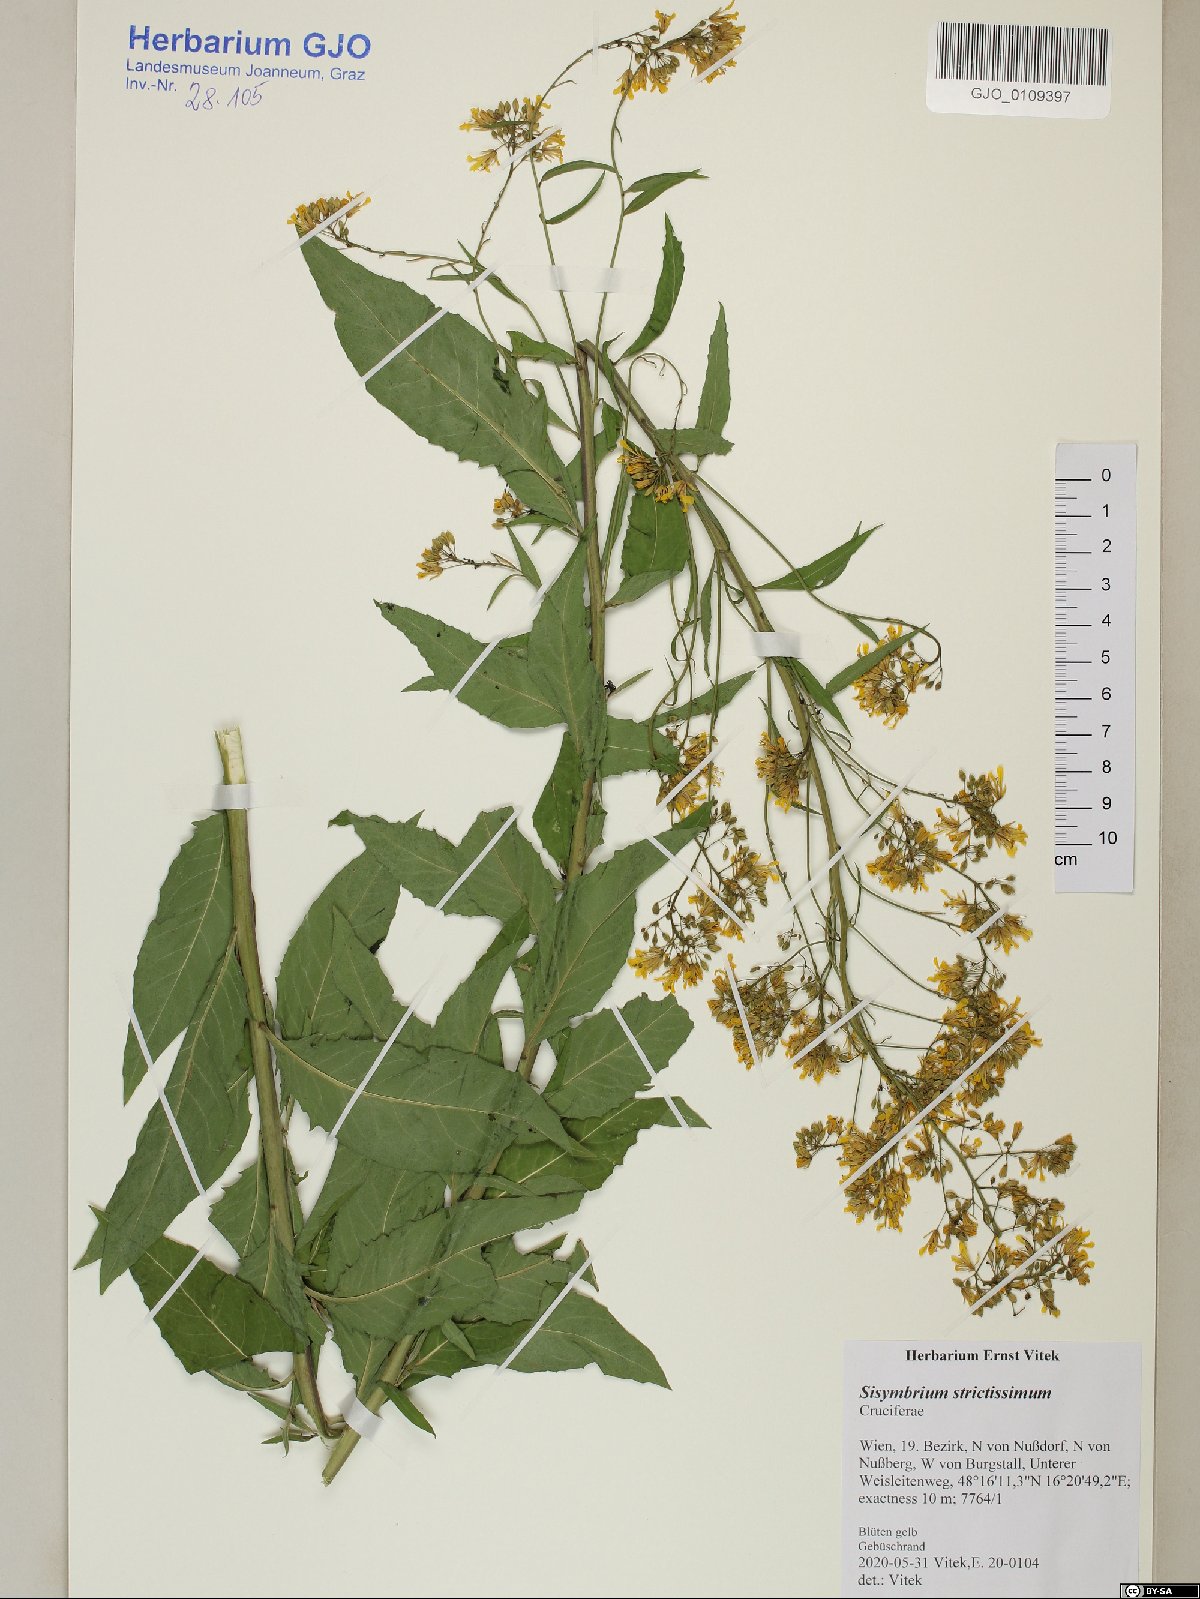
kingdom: Plantae
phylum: Tracheophyta
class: Magnoliopsida
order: Brassicales
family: Brassicaceae
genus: Sisymbrium
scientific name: Sisymbrium strictissimum
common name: Perennial rocket
